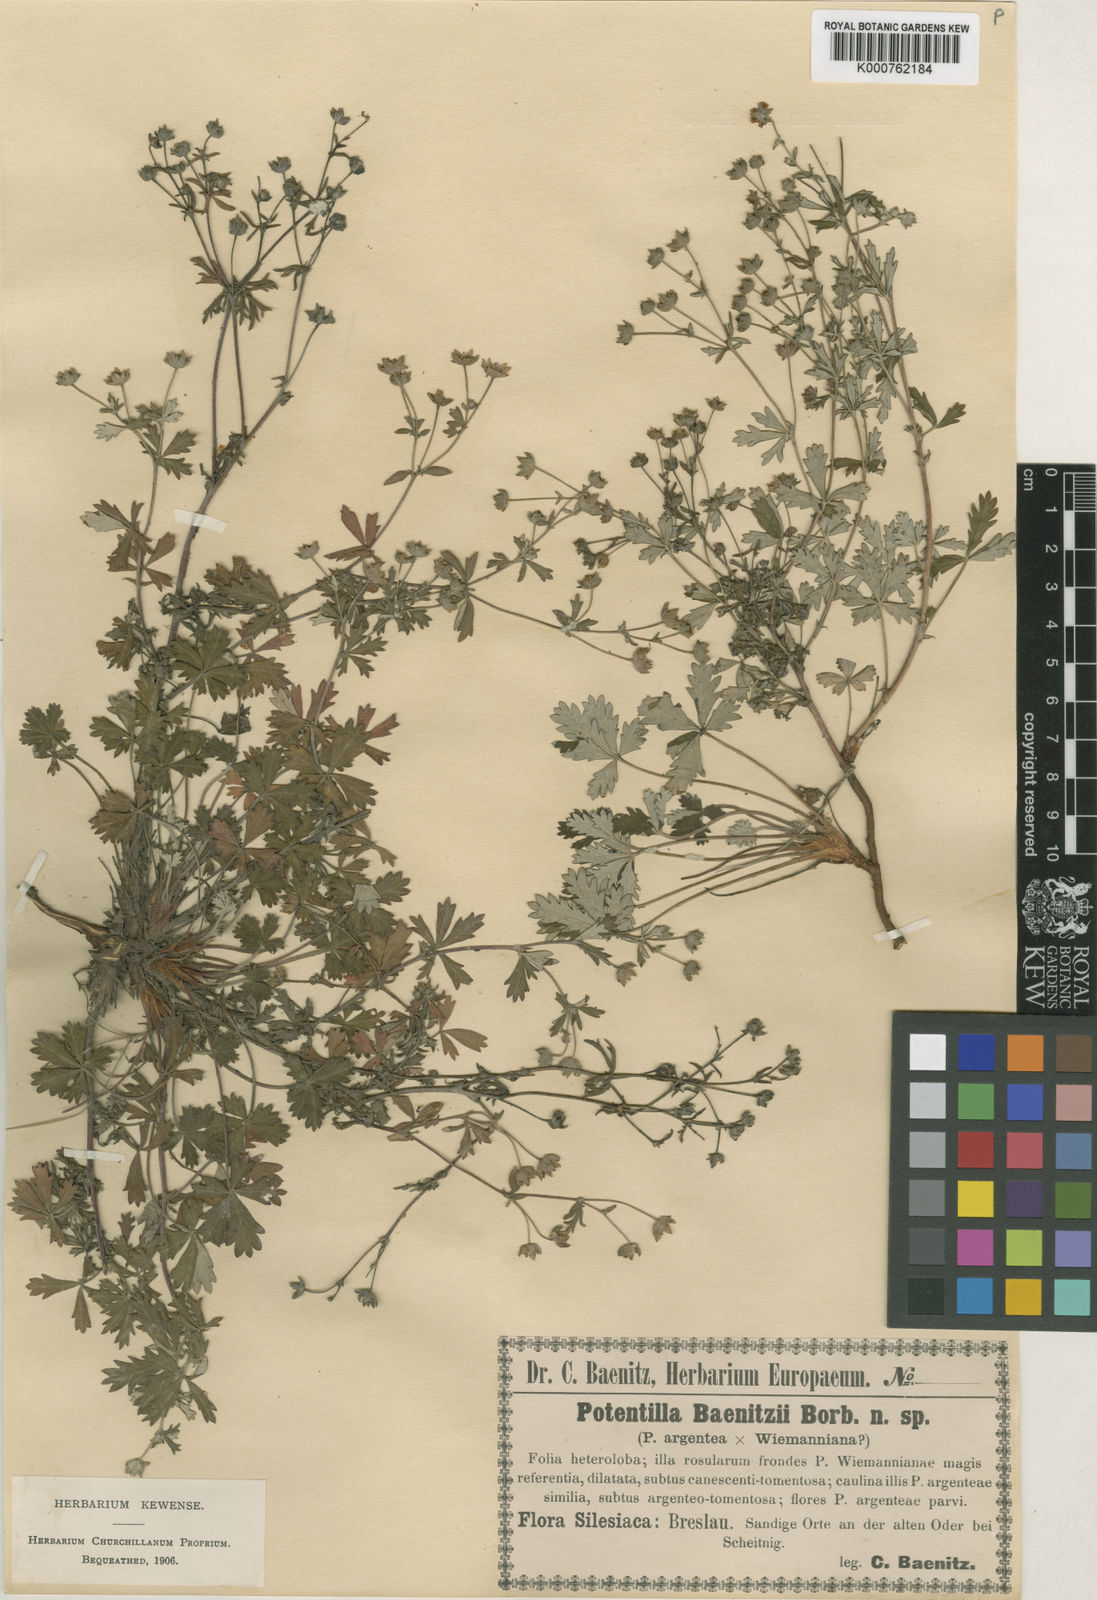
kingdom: Plantae
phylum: Tracheophyta
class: Magnoliopsida
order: Rosales
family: Rosaceae
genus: Potentilla
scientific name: Potentilla argentea
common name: Hoary cinquefoil
